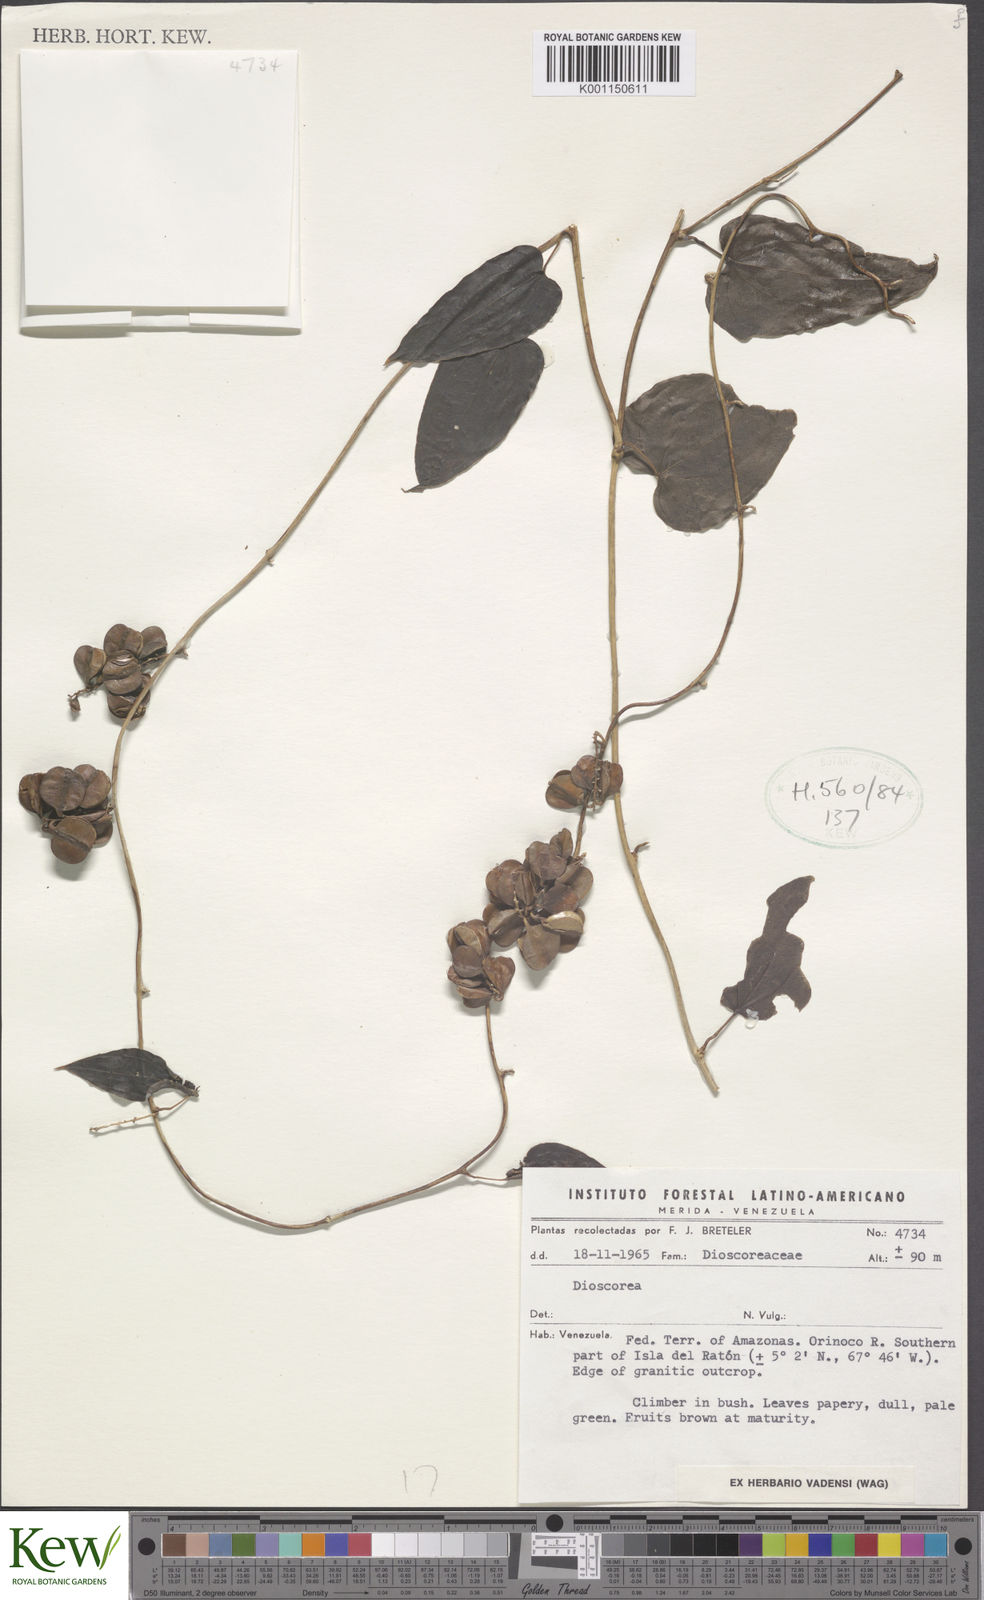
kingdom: Plantae
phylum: Tracheophyta
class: Liliopsida
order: Dioscoreales
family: Dioscoreaceae
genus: Dioscorea
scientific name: Dioscorea
